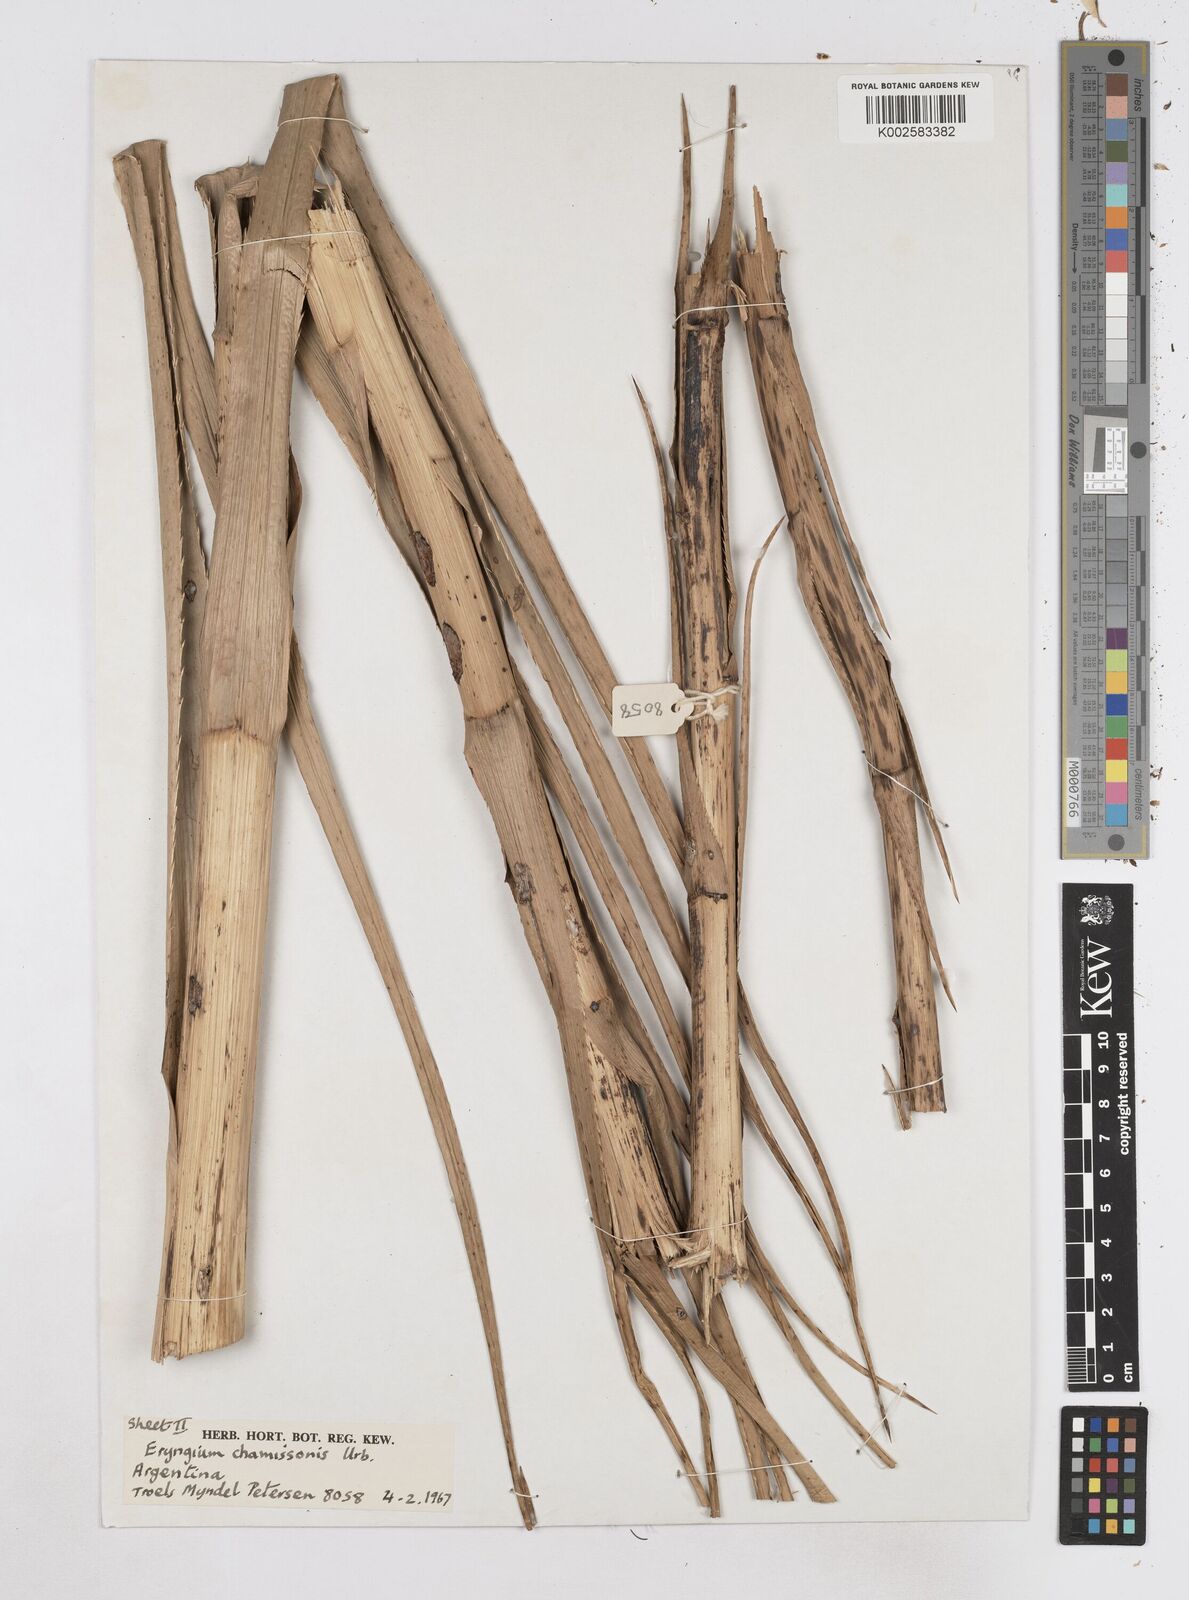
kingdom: Plantae
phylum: Tracheophyta
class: Magnoliopsida
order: Apiales
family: Apiaceae
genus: Eryngium
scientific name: Eryngium chamissonis
